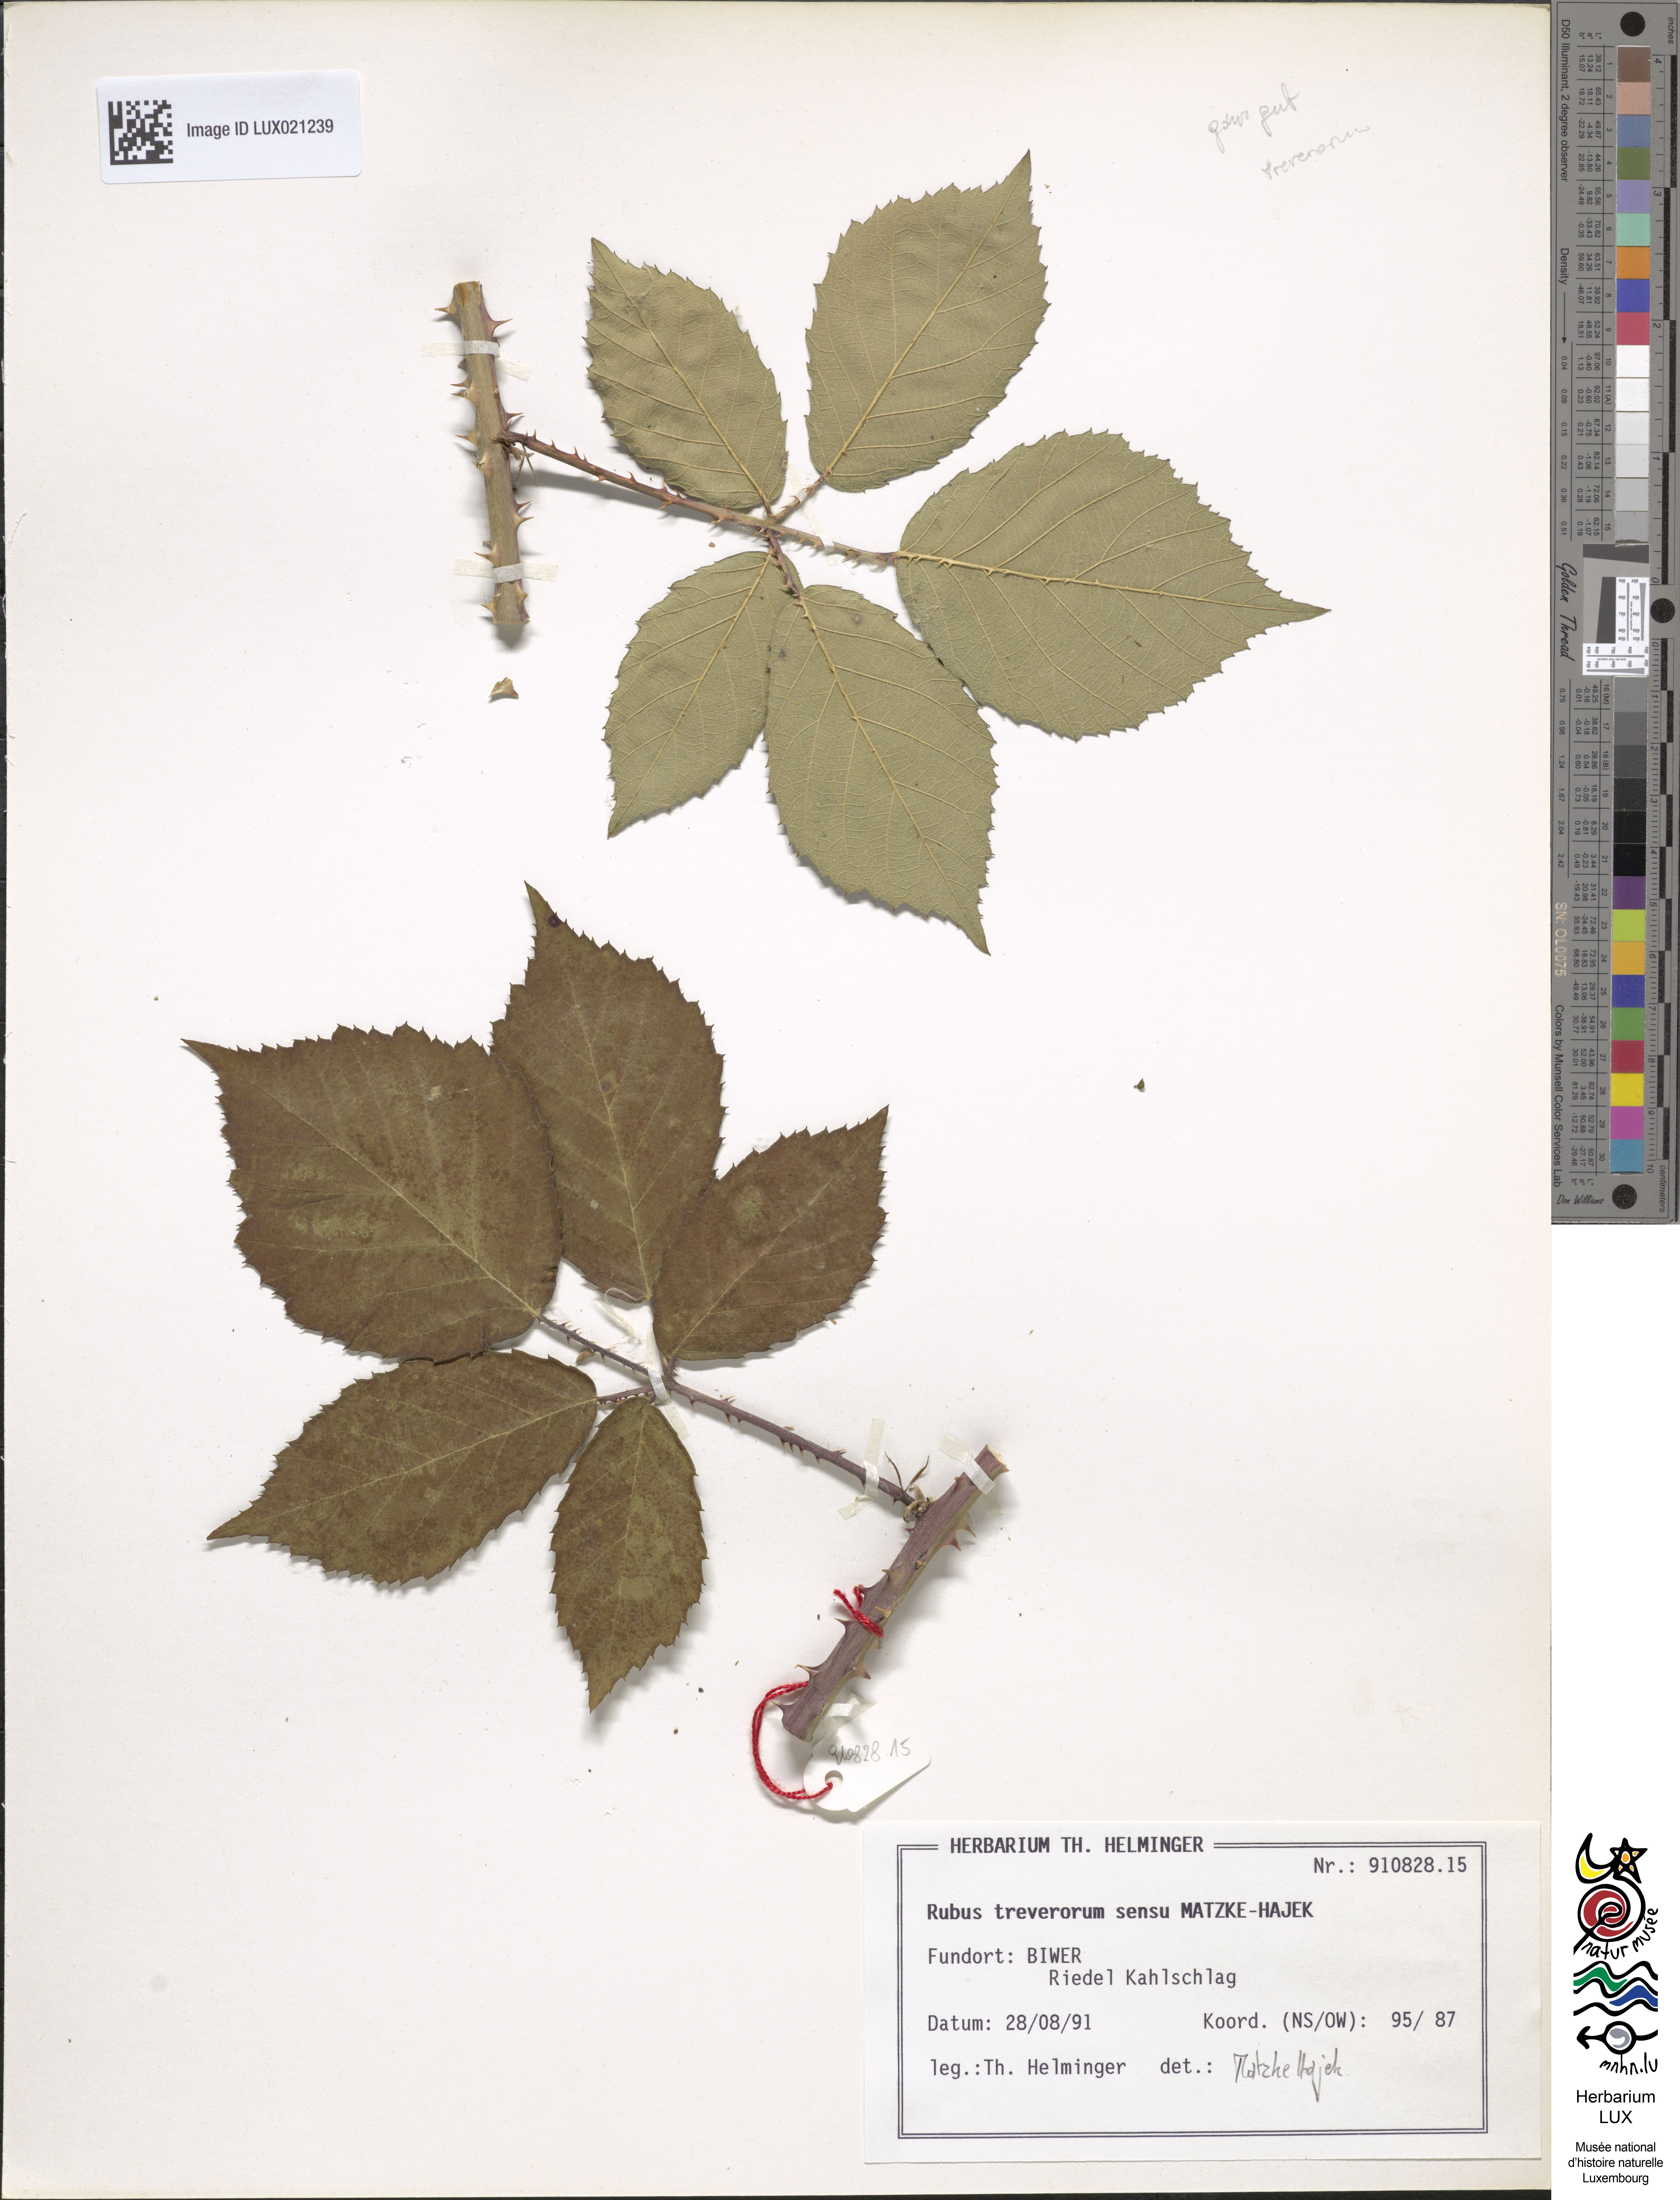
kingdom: Plantae
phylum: Tracheophyta
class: Magnoliopsida
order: Rosales
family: Rosaceae
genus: Rubus
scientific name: Rubus
